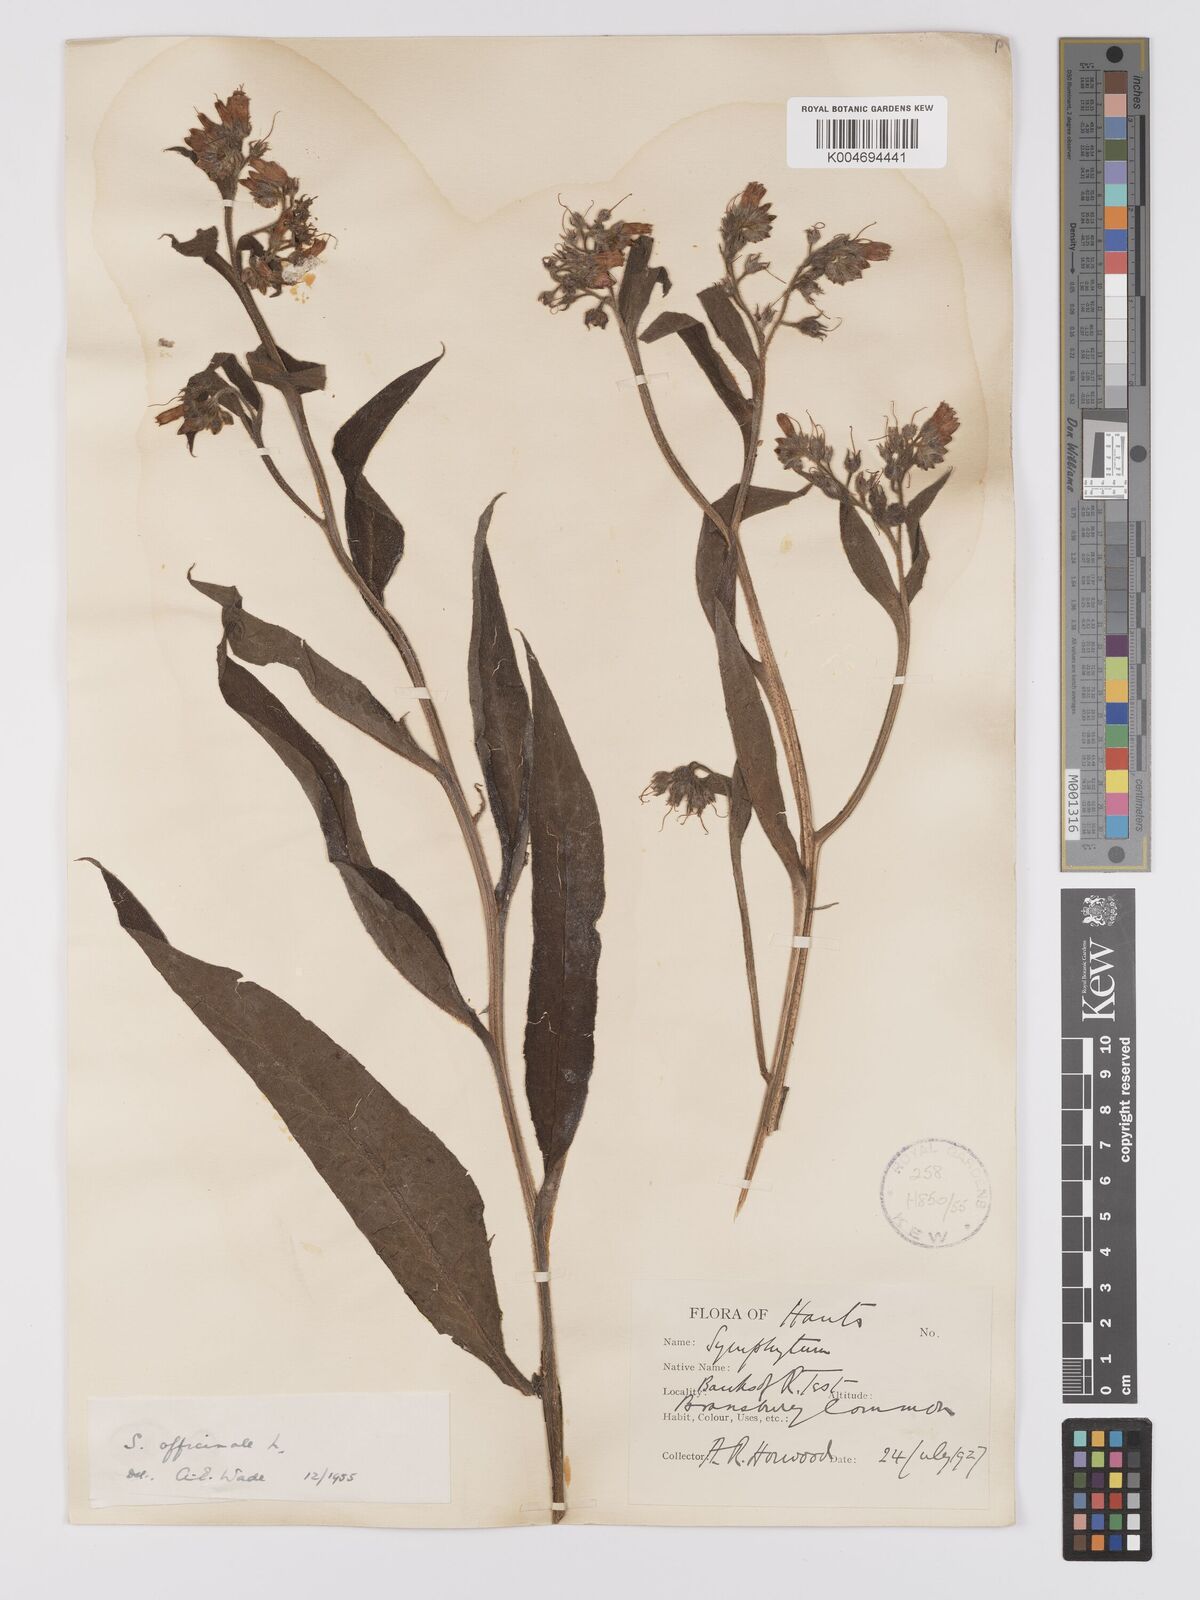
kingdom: Plantae
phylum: Tracheophyta
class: Magnoliopsida
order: Boraginales
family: Boraginaceae
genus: Symphytum
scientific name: Symphytum officinale
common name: Common comfrey
